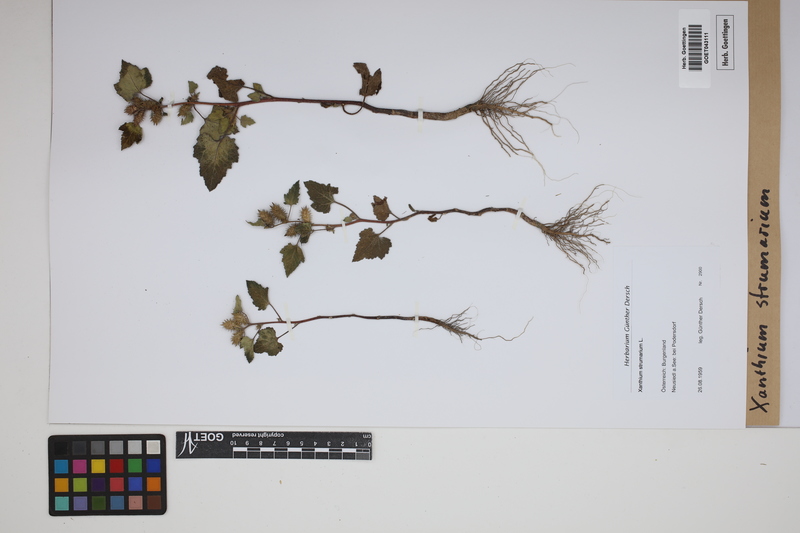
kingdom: Plantae
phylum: Tracheophyta
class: Magnoliopsida
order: Asterales
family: Asteraceae
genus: Xanthium
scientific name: Xanthium strumarium
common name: Rough cocklebur
